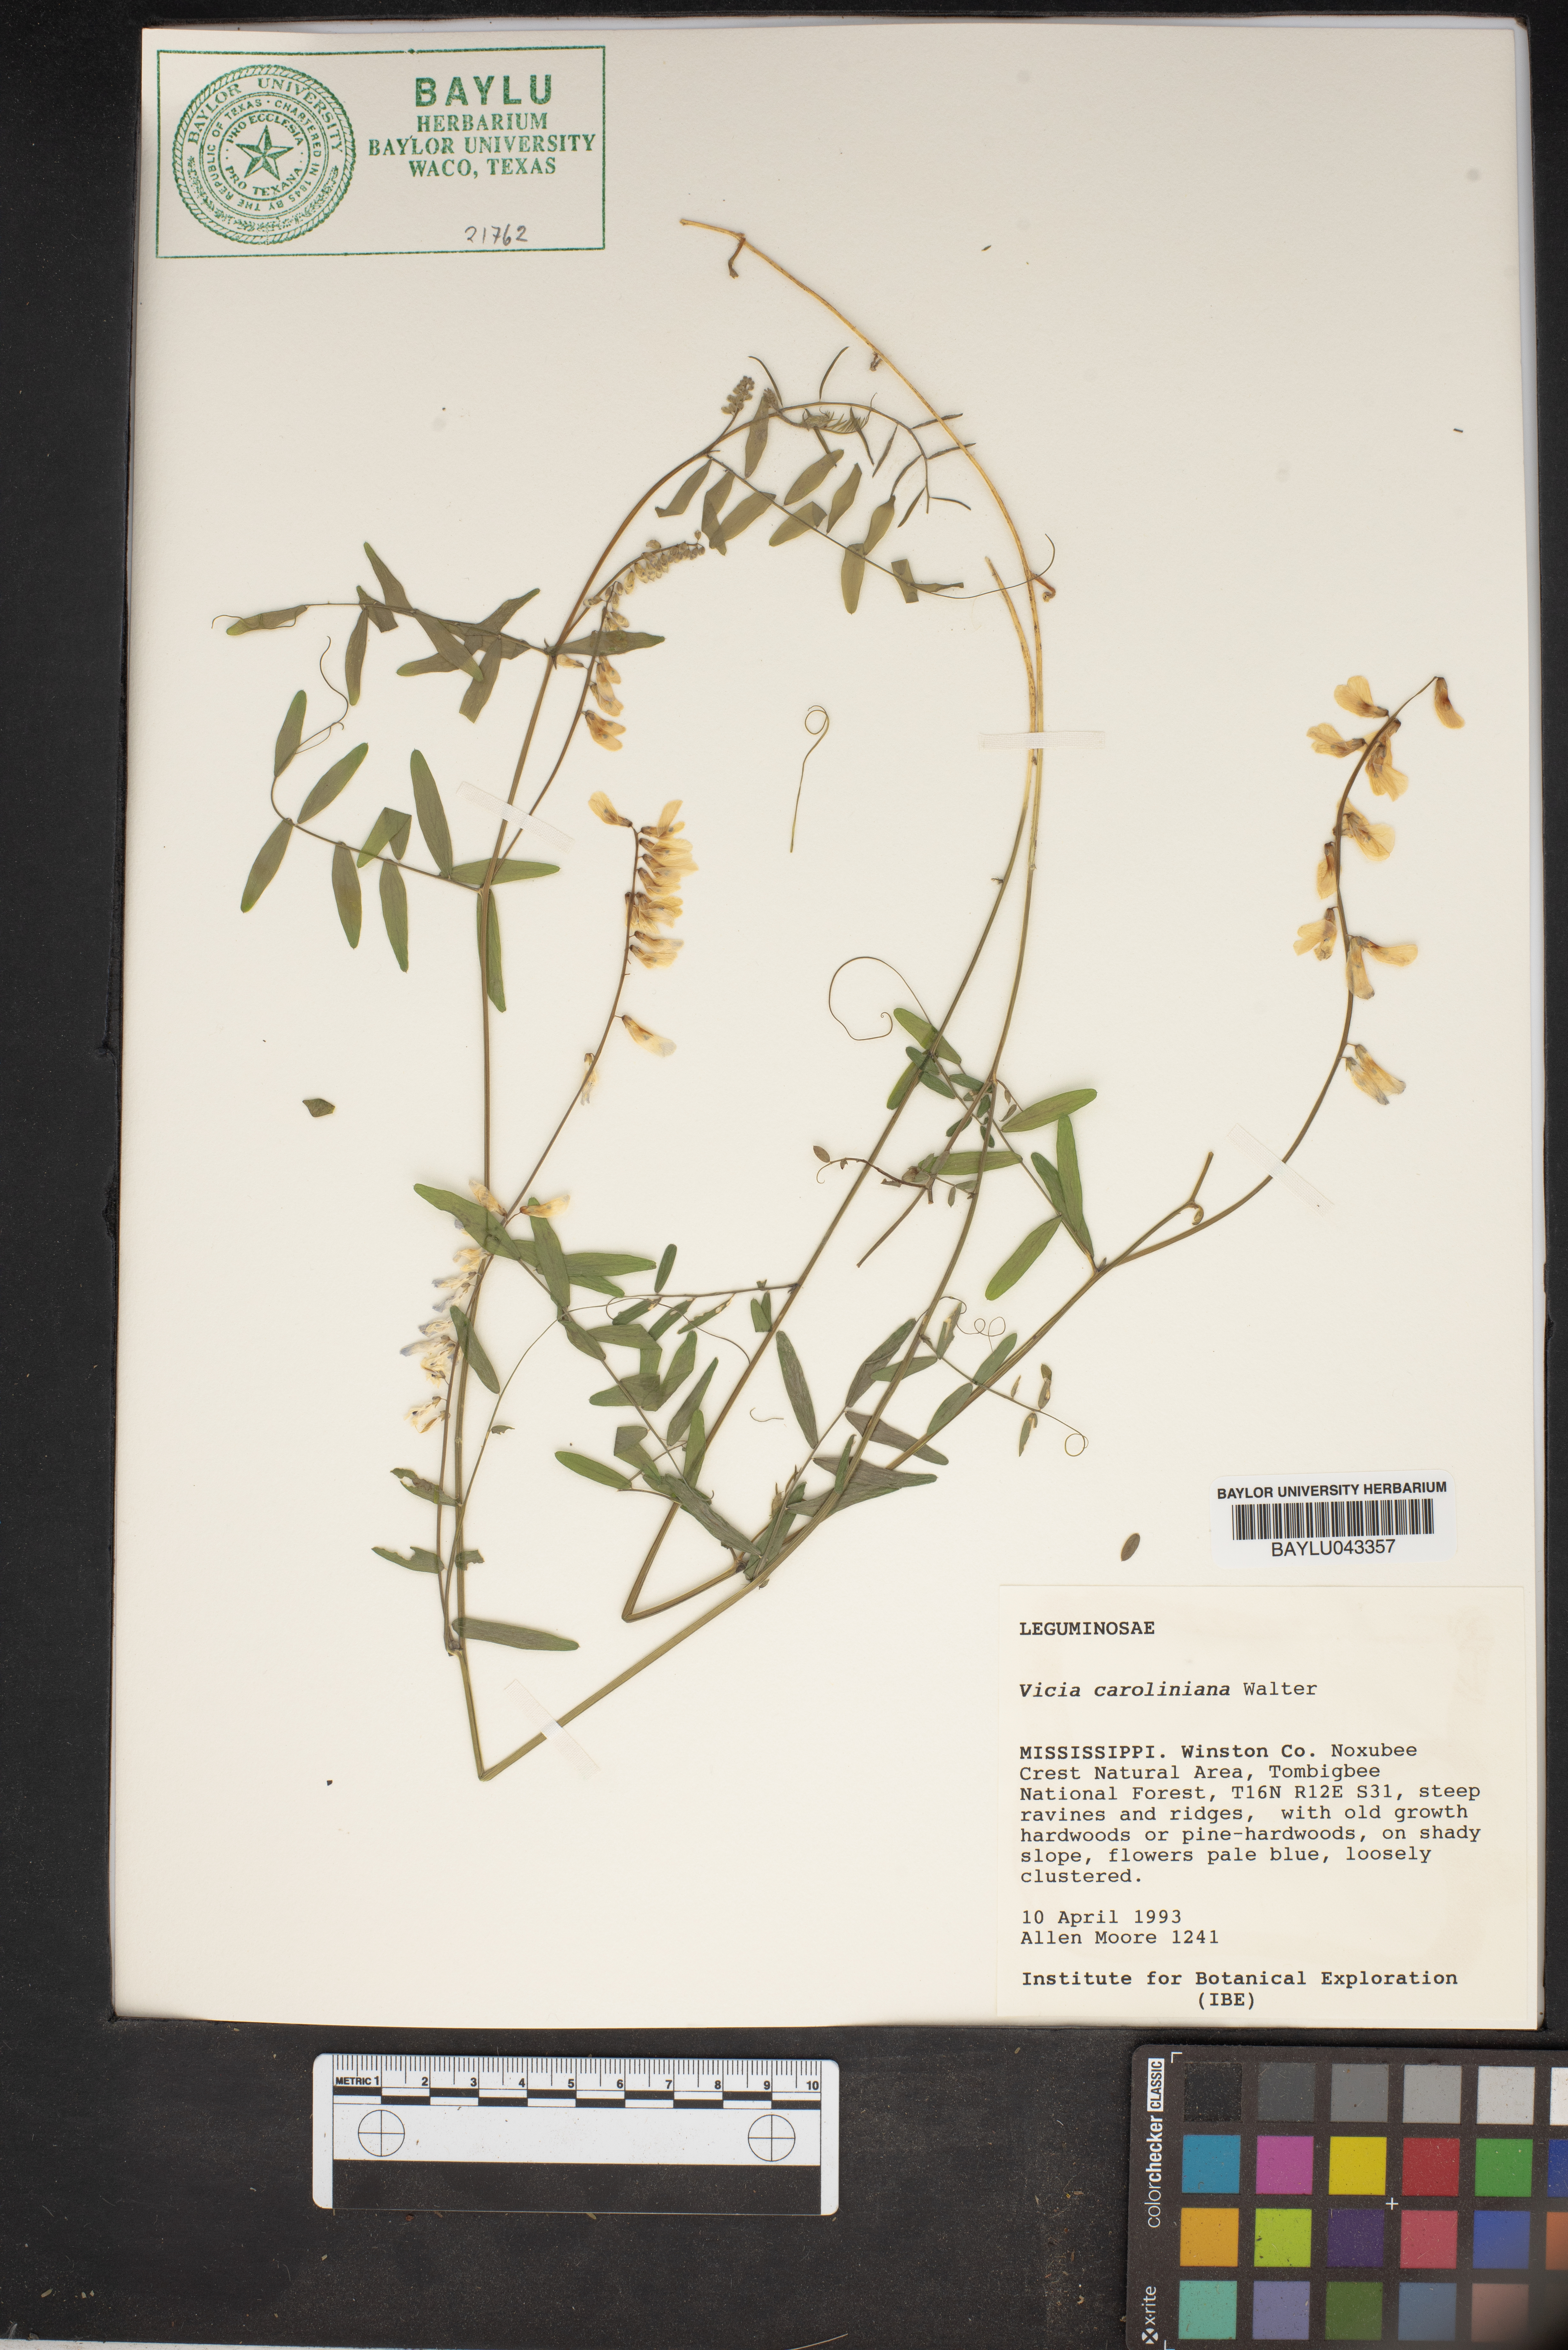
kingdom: Plantae
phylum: Tracheophyta
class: Magnoliopsida
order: Fabales
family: Fabaceae
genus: Vicia
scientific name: Vicia caroliniana
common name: Carolina vetch
